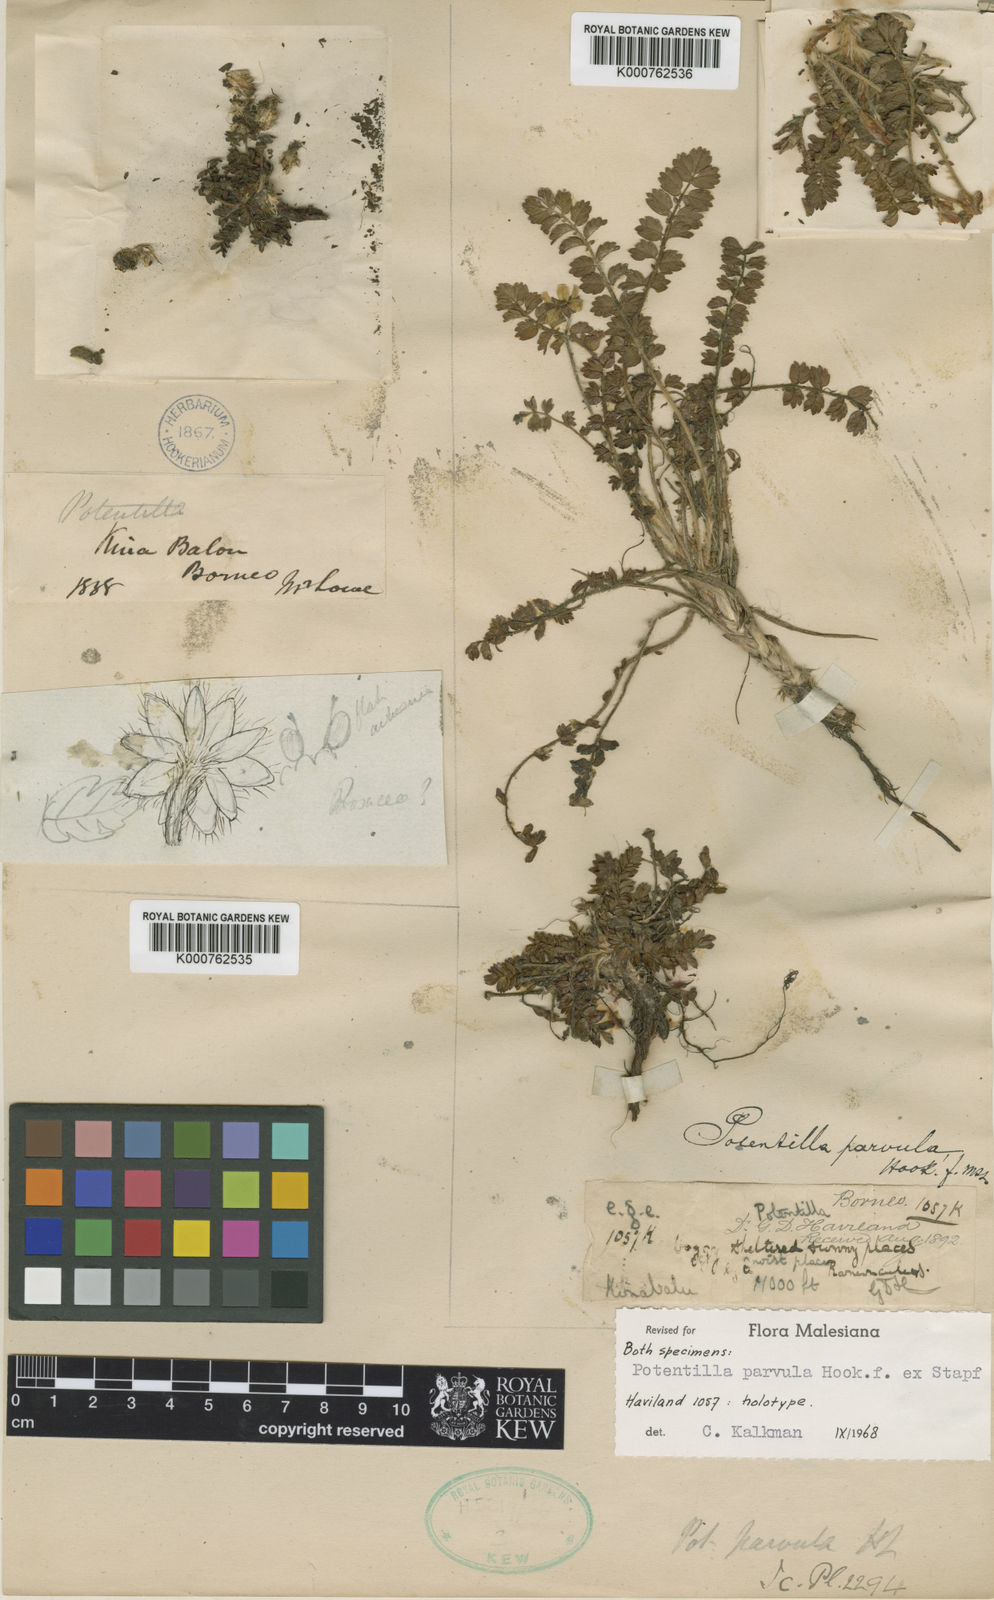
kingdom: Plantae
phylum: Tracheophyta
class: Magnoliopsida
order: Rosales
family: Rosaceae
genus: Argentina
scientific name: Argentina parvula
